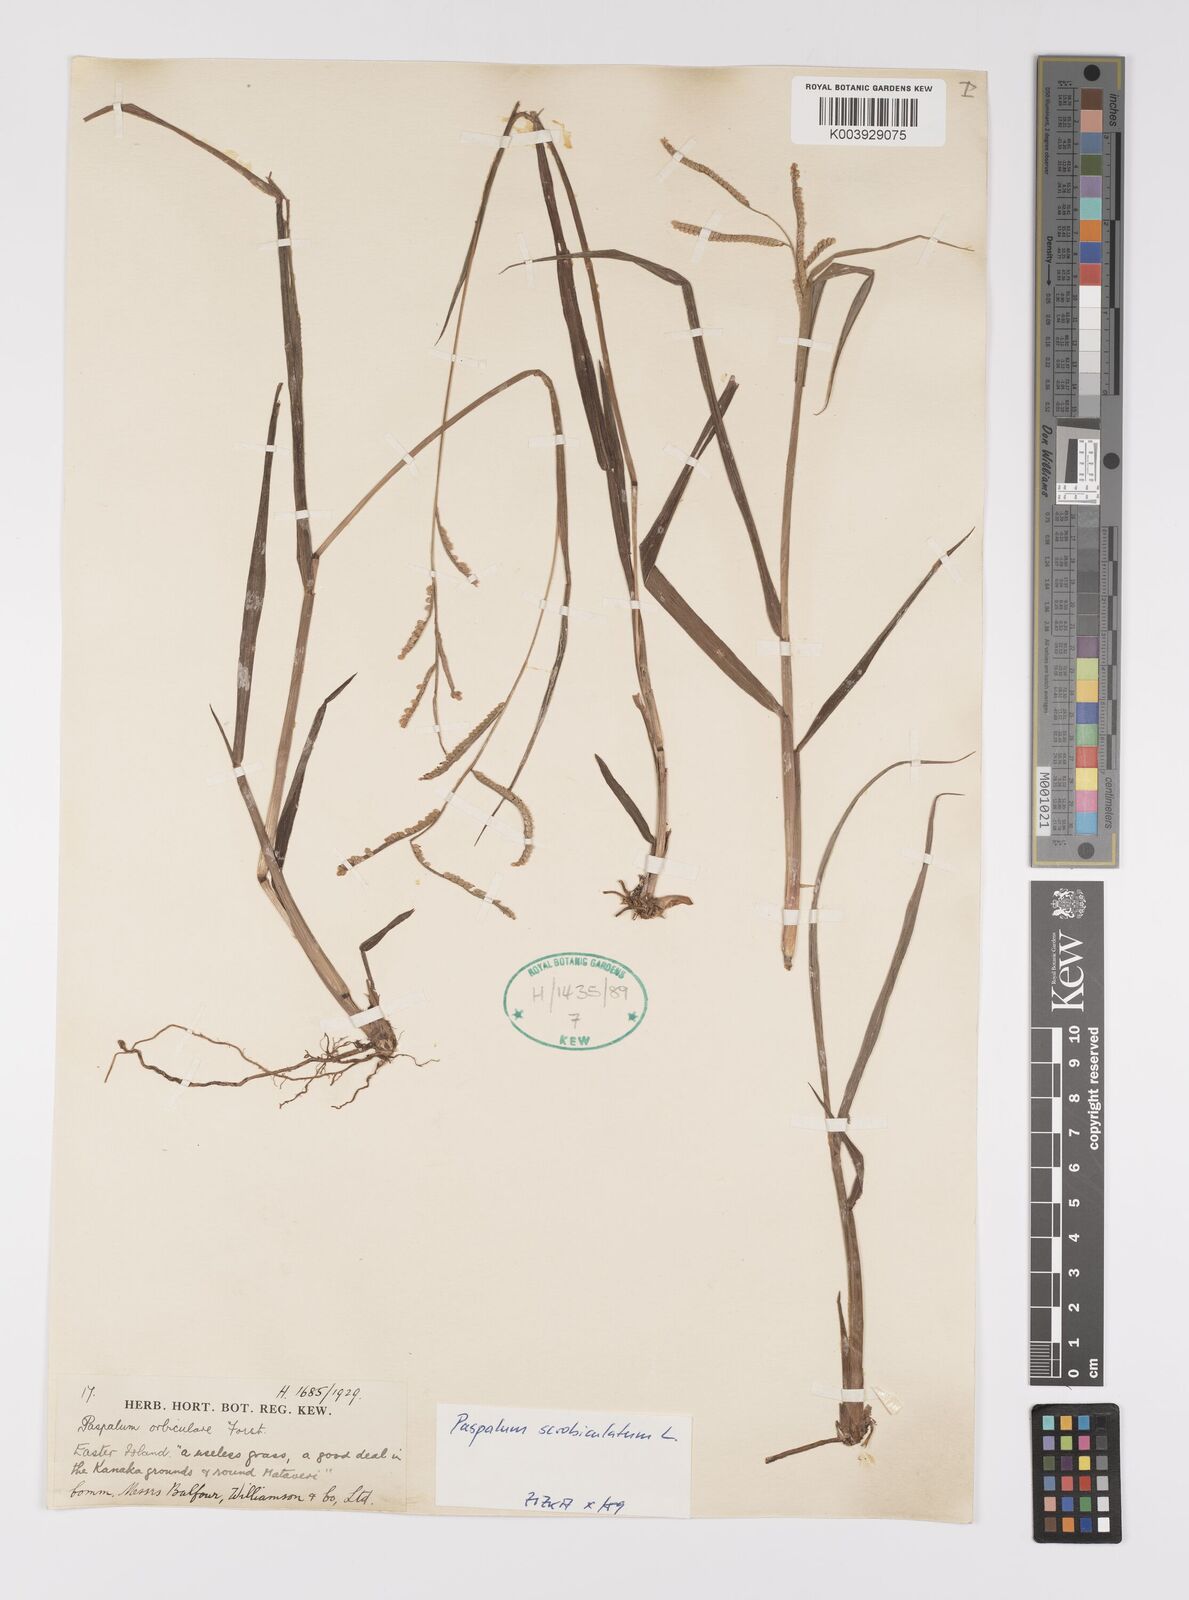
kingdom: Plantae
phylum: Tracheophyta
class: Liliopsida
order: Poales
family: Poaceae
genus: Paspalum
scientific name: Paspalum
